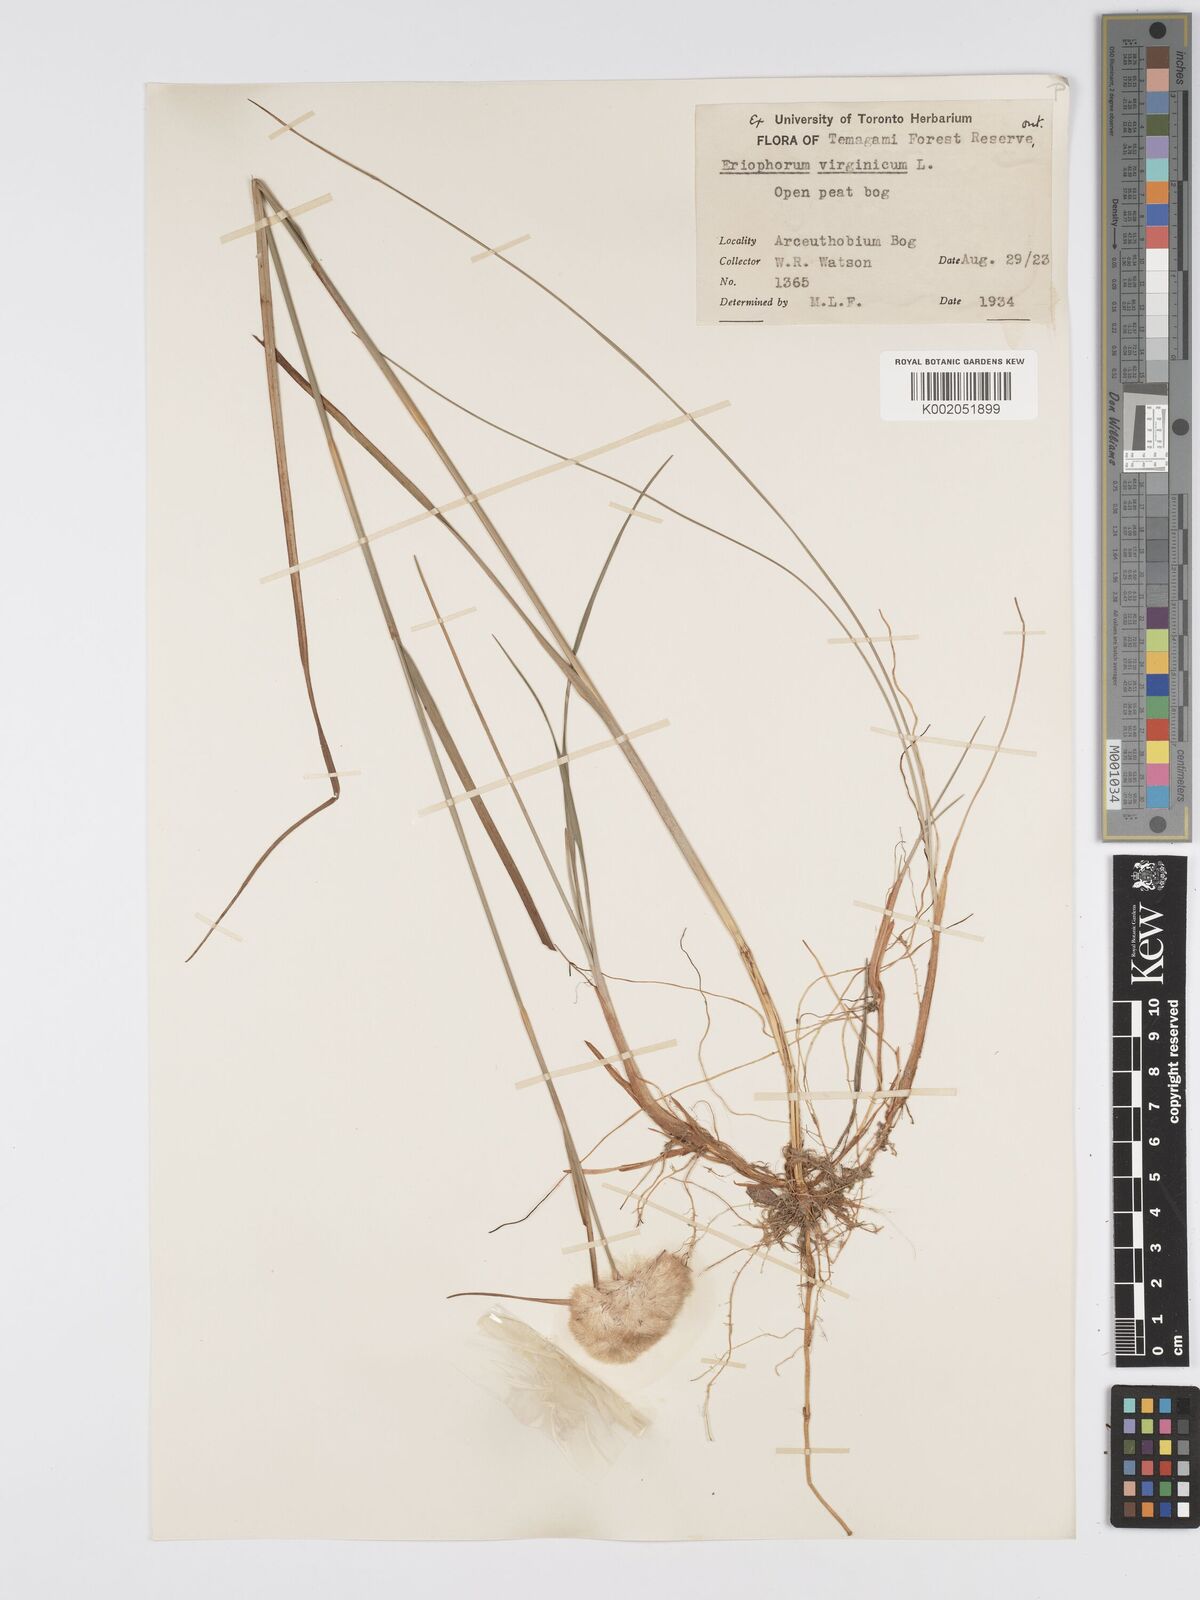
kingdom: Plantae
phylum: Tracheophyta
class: Liliopsida
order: Poales
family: Cyperaceae
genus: Eriophorum
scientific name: Eriophorum virginicum
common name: Tawny cottongrass
